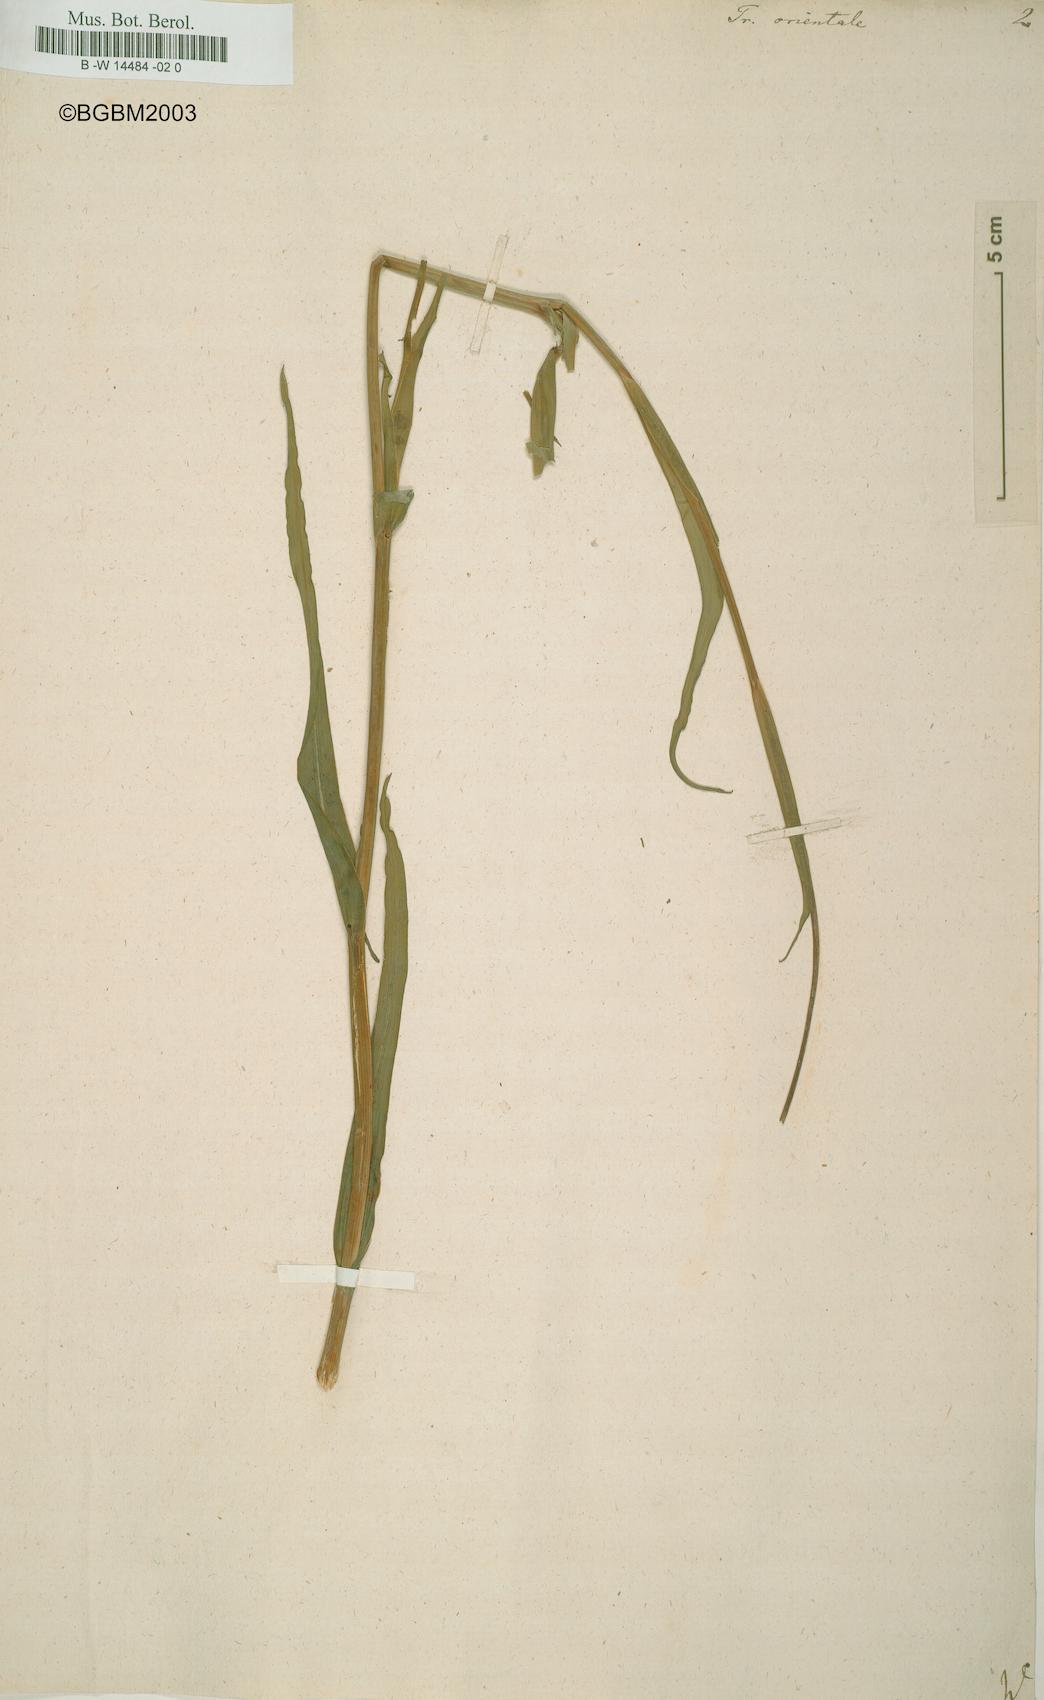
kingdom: Plantae
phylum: Tracheophyta
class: Magnoliopsida
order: Asterales
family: Asteraceae
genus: Tragopogon
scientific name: Tragopogon orientalis
